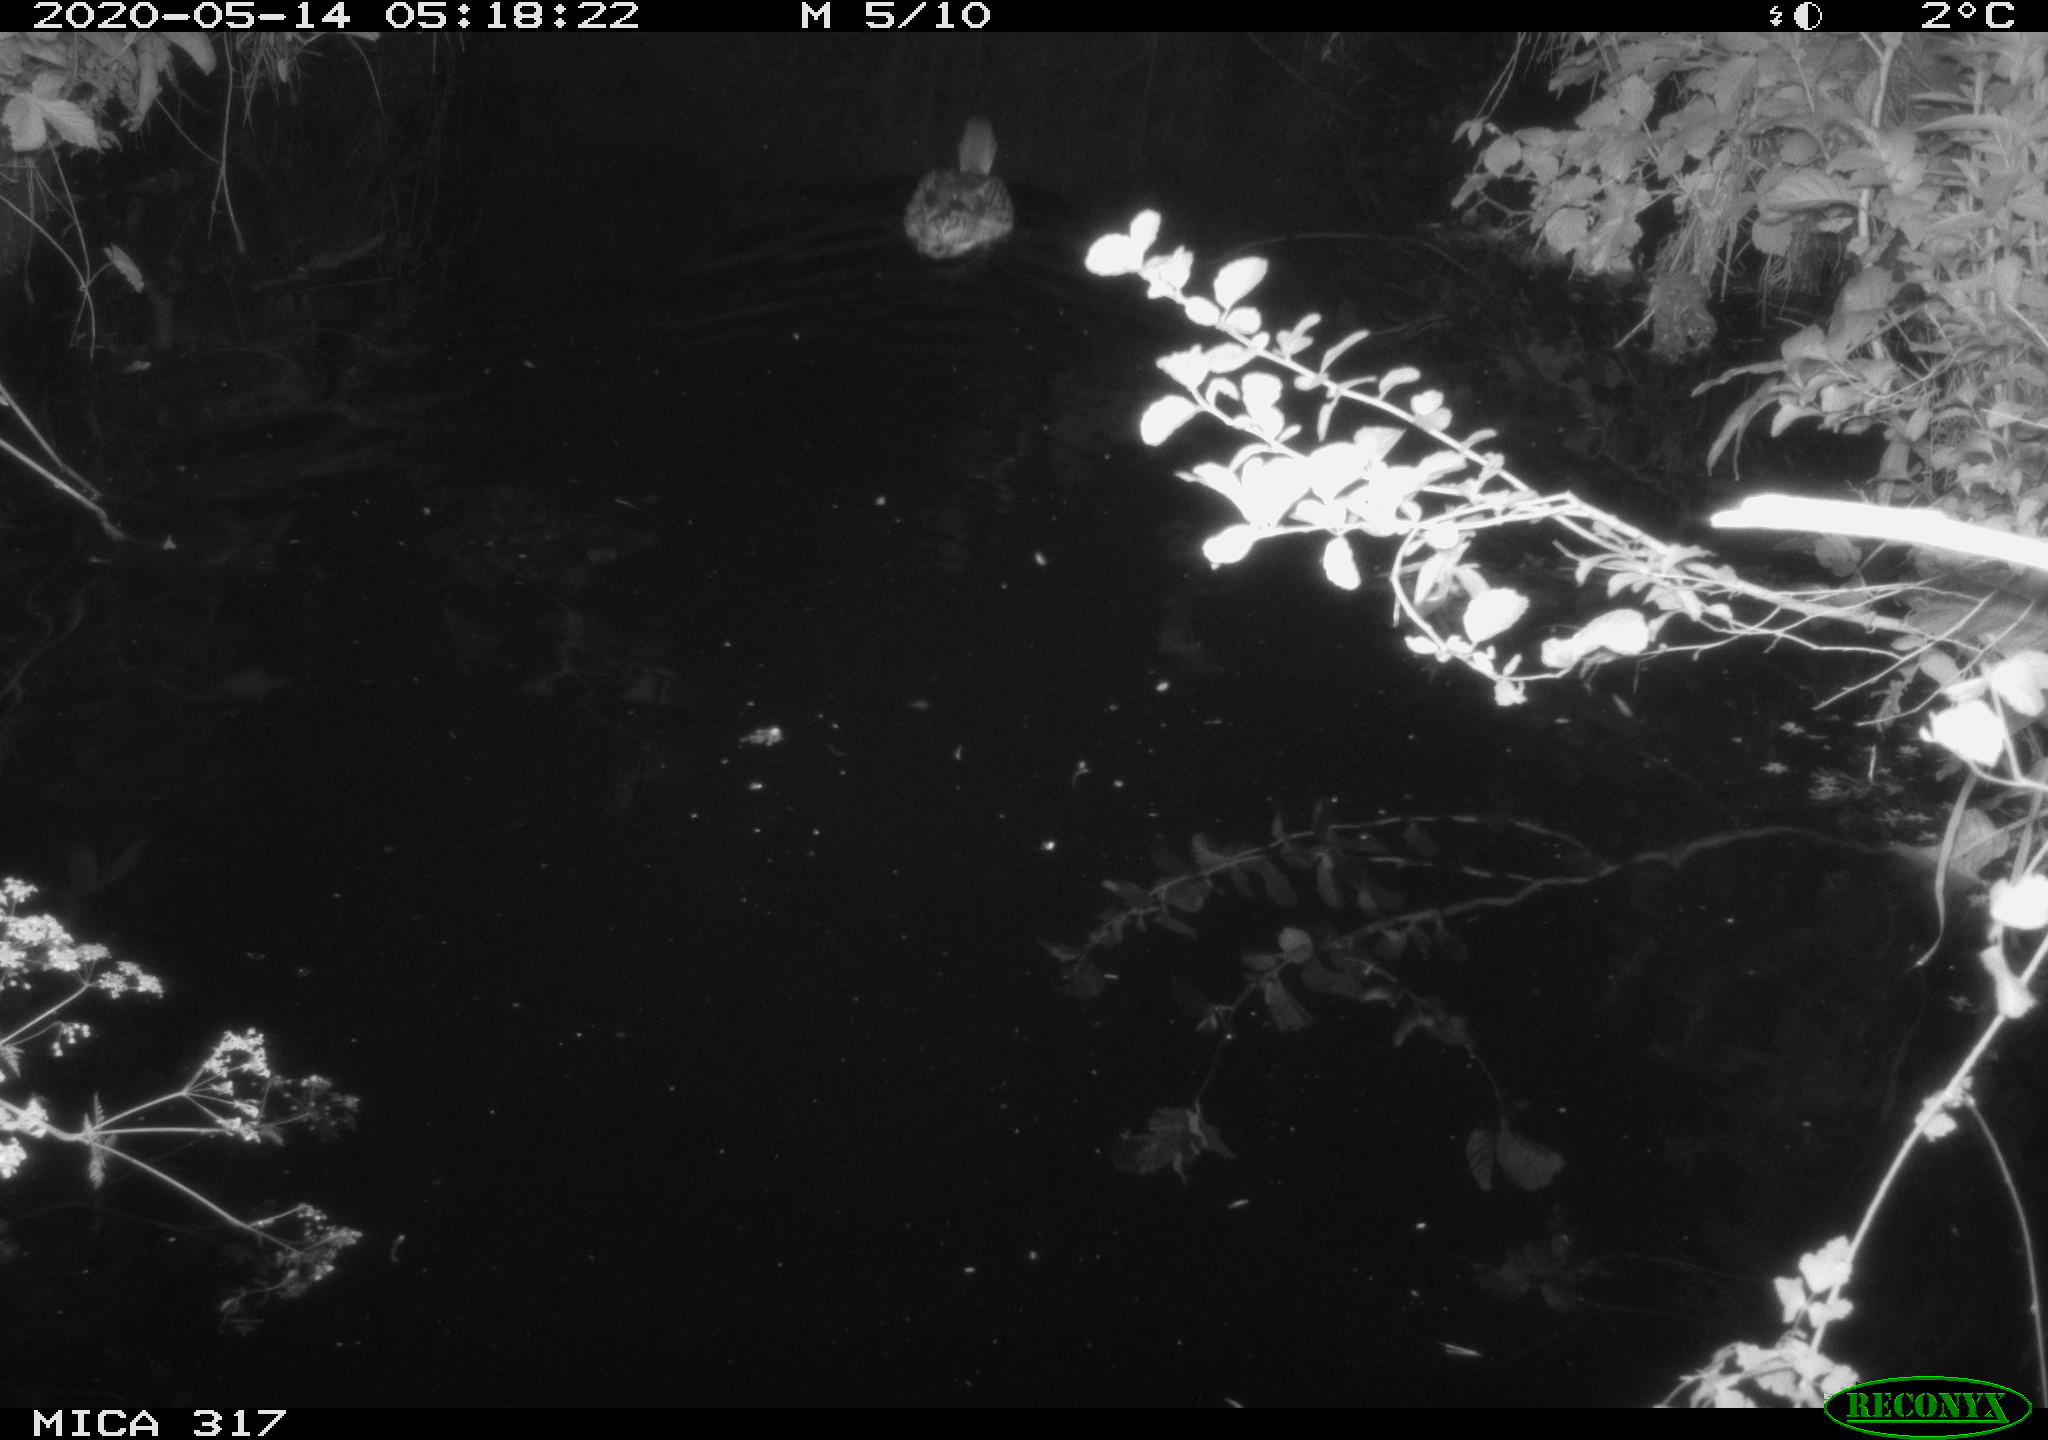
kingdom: Animalia
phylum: Chordata
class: Aves
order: Anseriformes
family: Anatidae
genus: Anas
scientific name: Anas platyrhynchos
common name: Mallard
